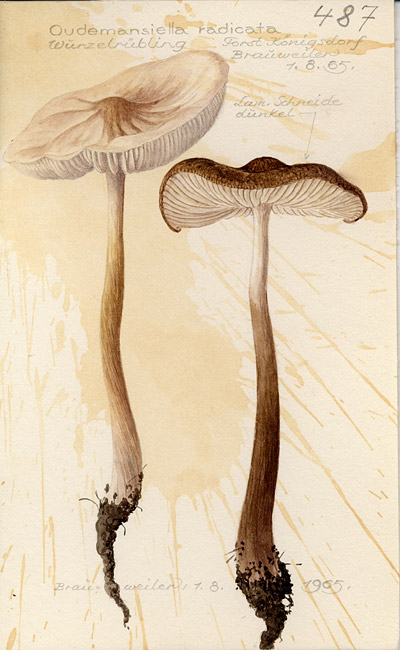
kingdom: Fungi
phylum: Basidiomycota
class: Agaricomycetes
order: Agaricales
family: Physalacriaceae
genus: Hymenopellis
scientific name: Hymenopellis radicata
